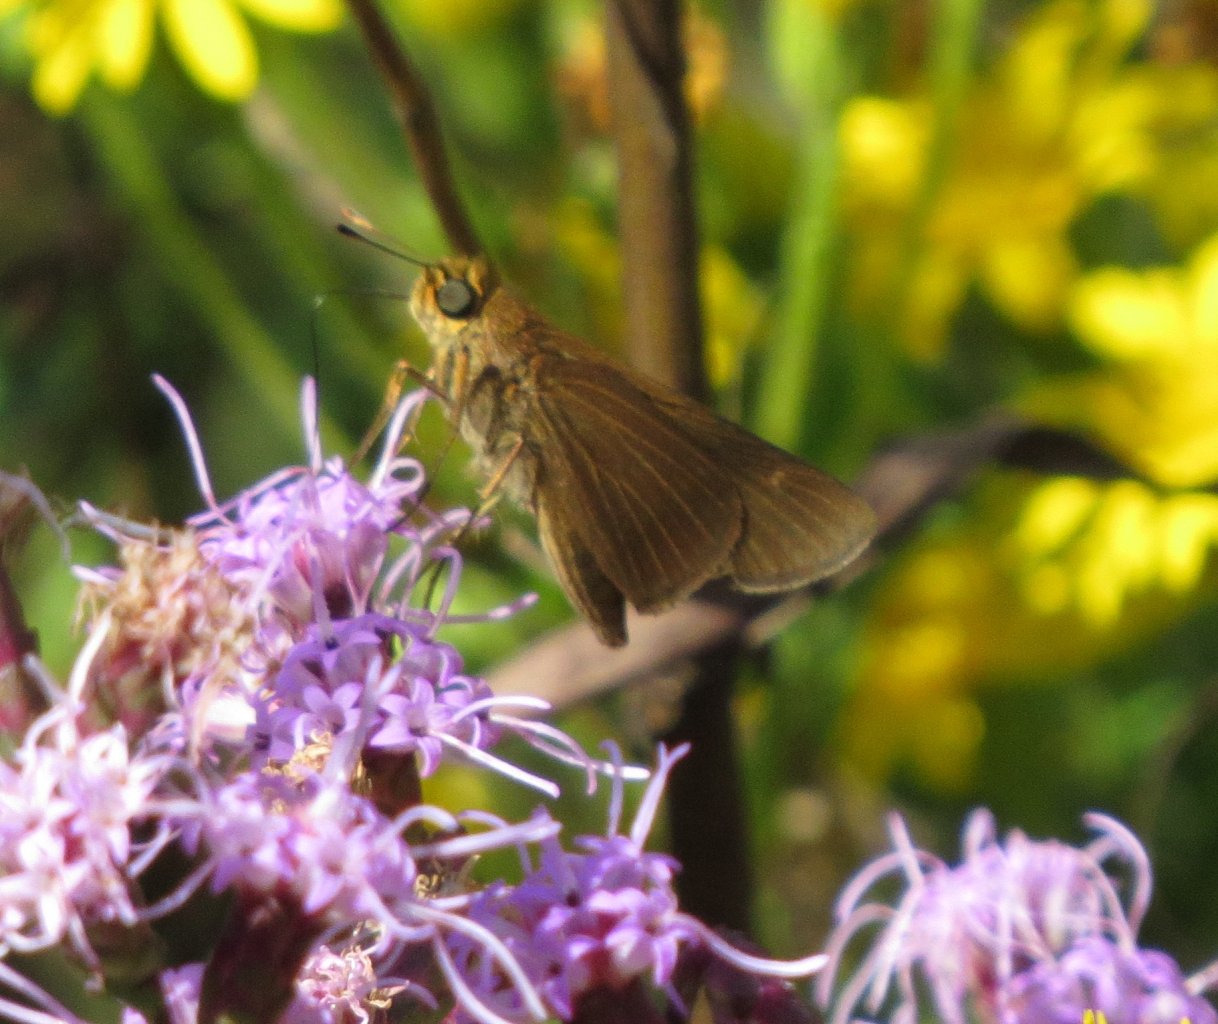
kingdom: Animalia
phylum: Arthropoda
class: Insecta
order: Lepidoptera
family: Hesperiidae
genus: Panoquina
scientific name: Panoquina ocola
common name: Ocola Skipper
